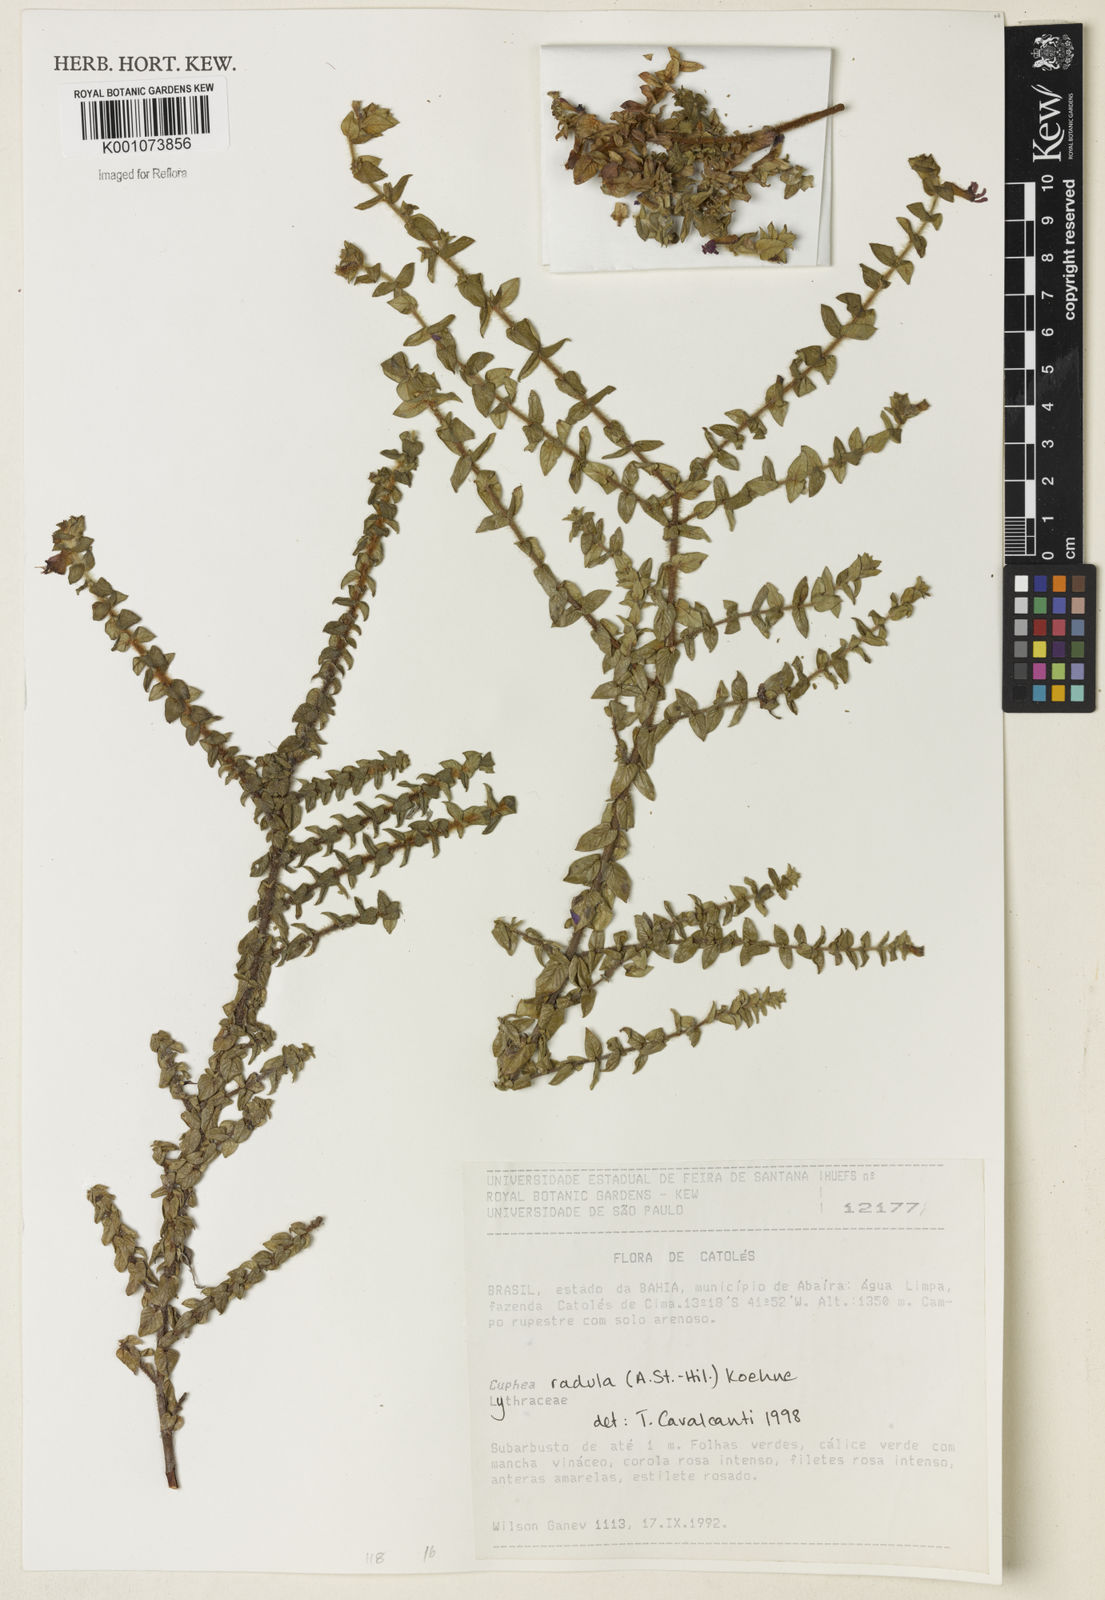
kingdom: Plantae
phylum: Tracheophyta
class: Magnoliopsida
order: Myrtales
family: Lythraceae
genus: Cuphea
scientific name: Cuphea antisyphilitica
